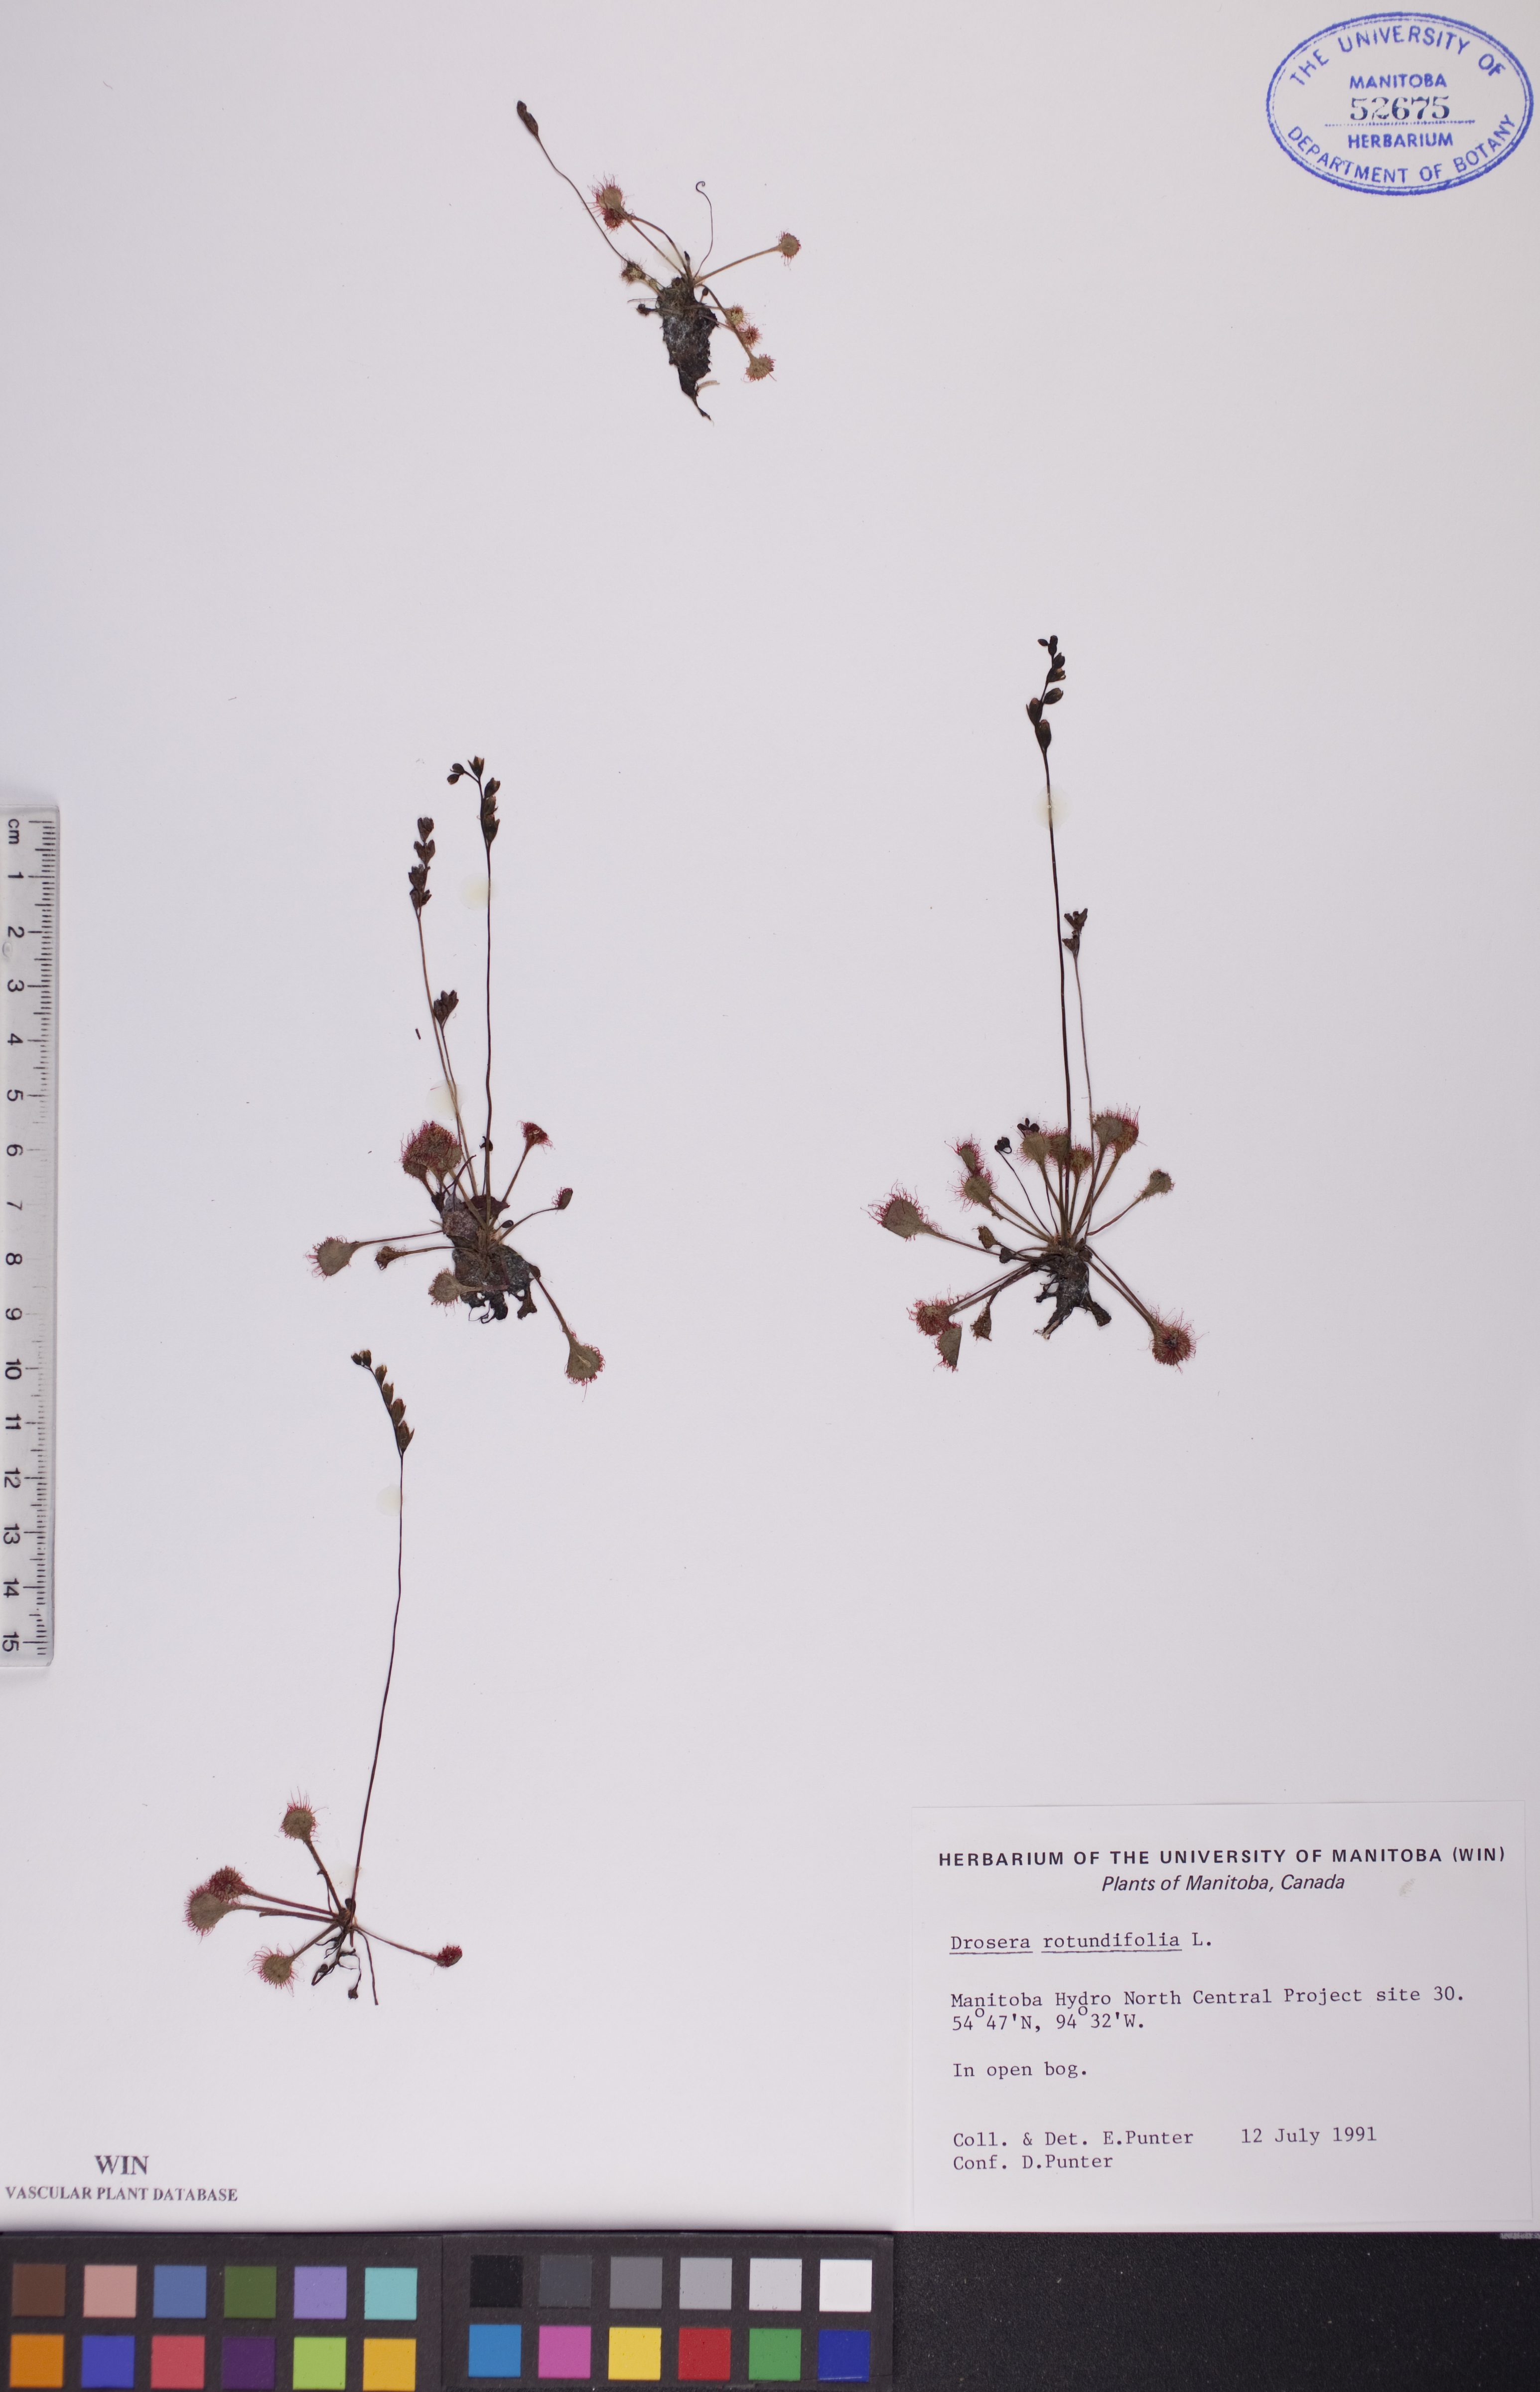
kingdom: Plantae
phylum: Tracheophyta
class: Magnoliopsida
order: Caryophyllales
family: Droseraceae
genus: Drosera
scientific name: Drosera rotundifolia
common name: Round-leaved sundew
